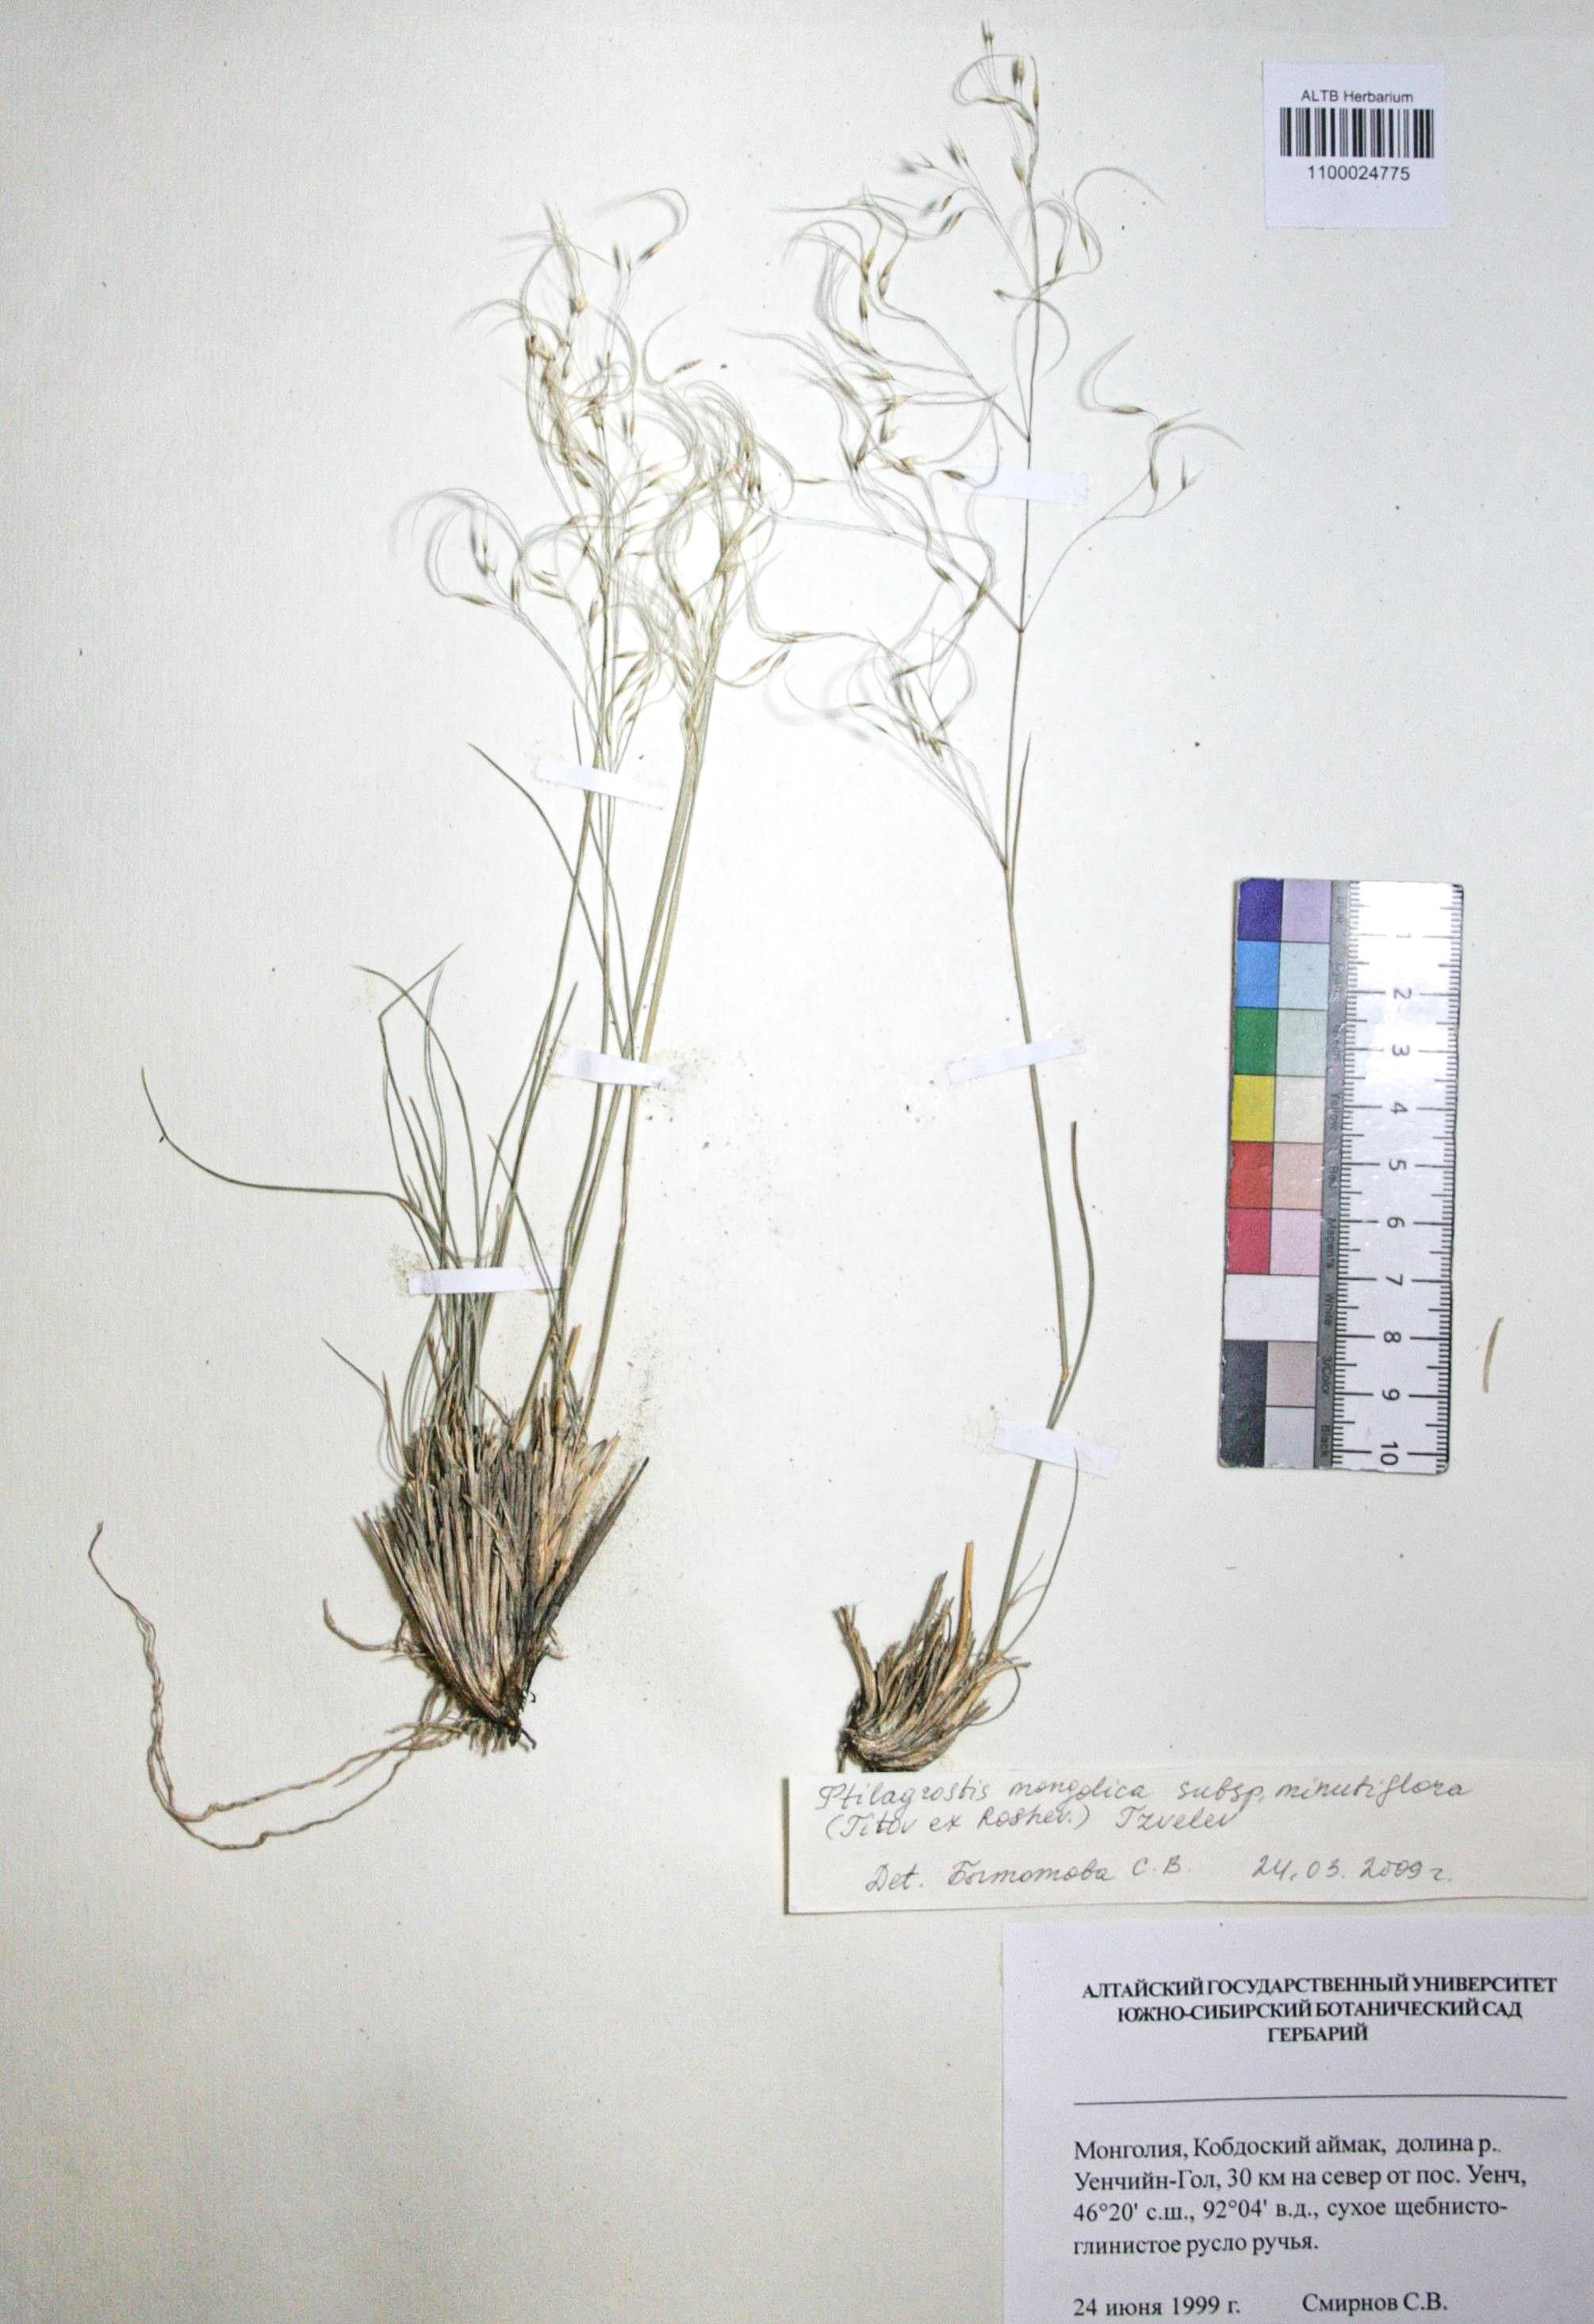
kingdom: Plantae
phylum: Tracheophyta
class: Liliopsida
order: Poales
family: Poaceae
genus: Ptilagrostis
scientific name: Ptilagrostis mongholica
